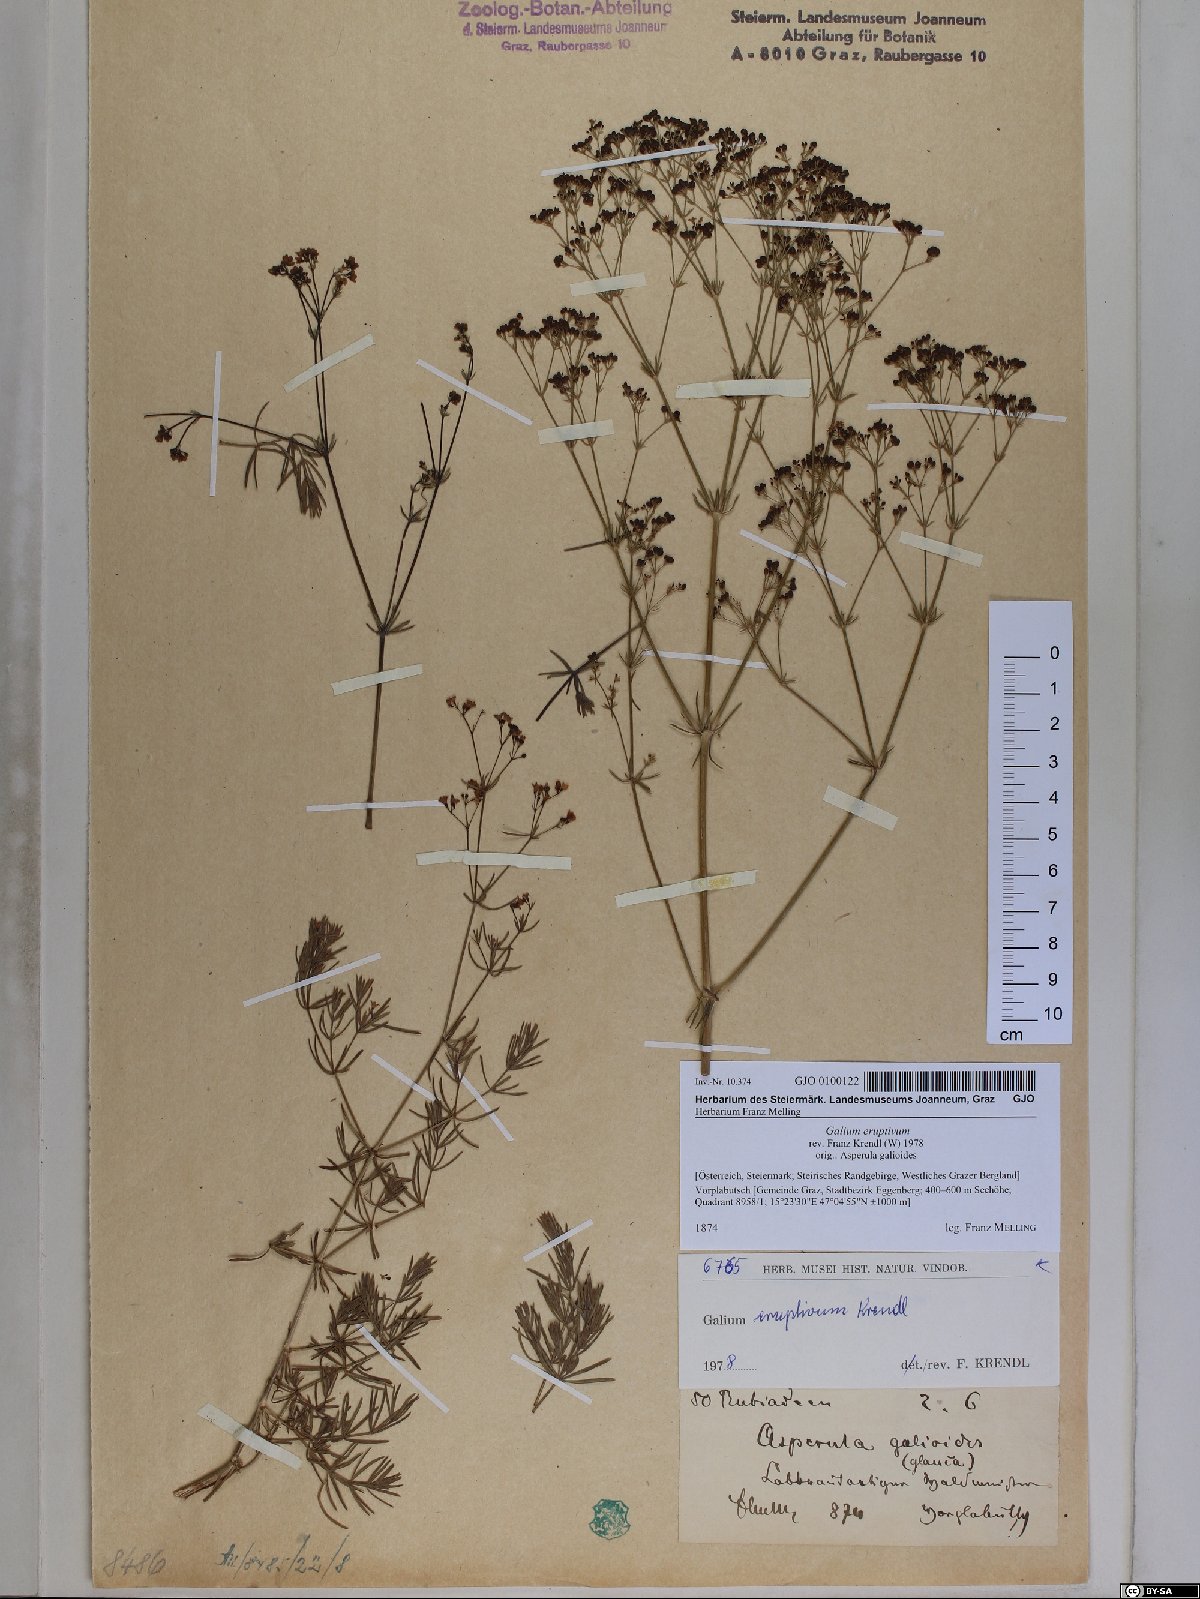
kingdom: Plantae
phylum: Tracheophyta
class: Magnoliopsida
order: Gentianales
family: Rubiaceae
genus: Galium
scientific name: Galium eruptivum
